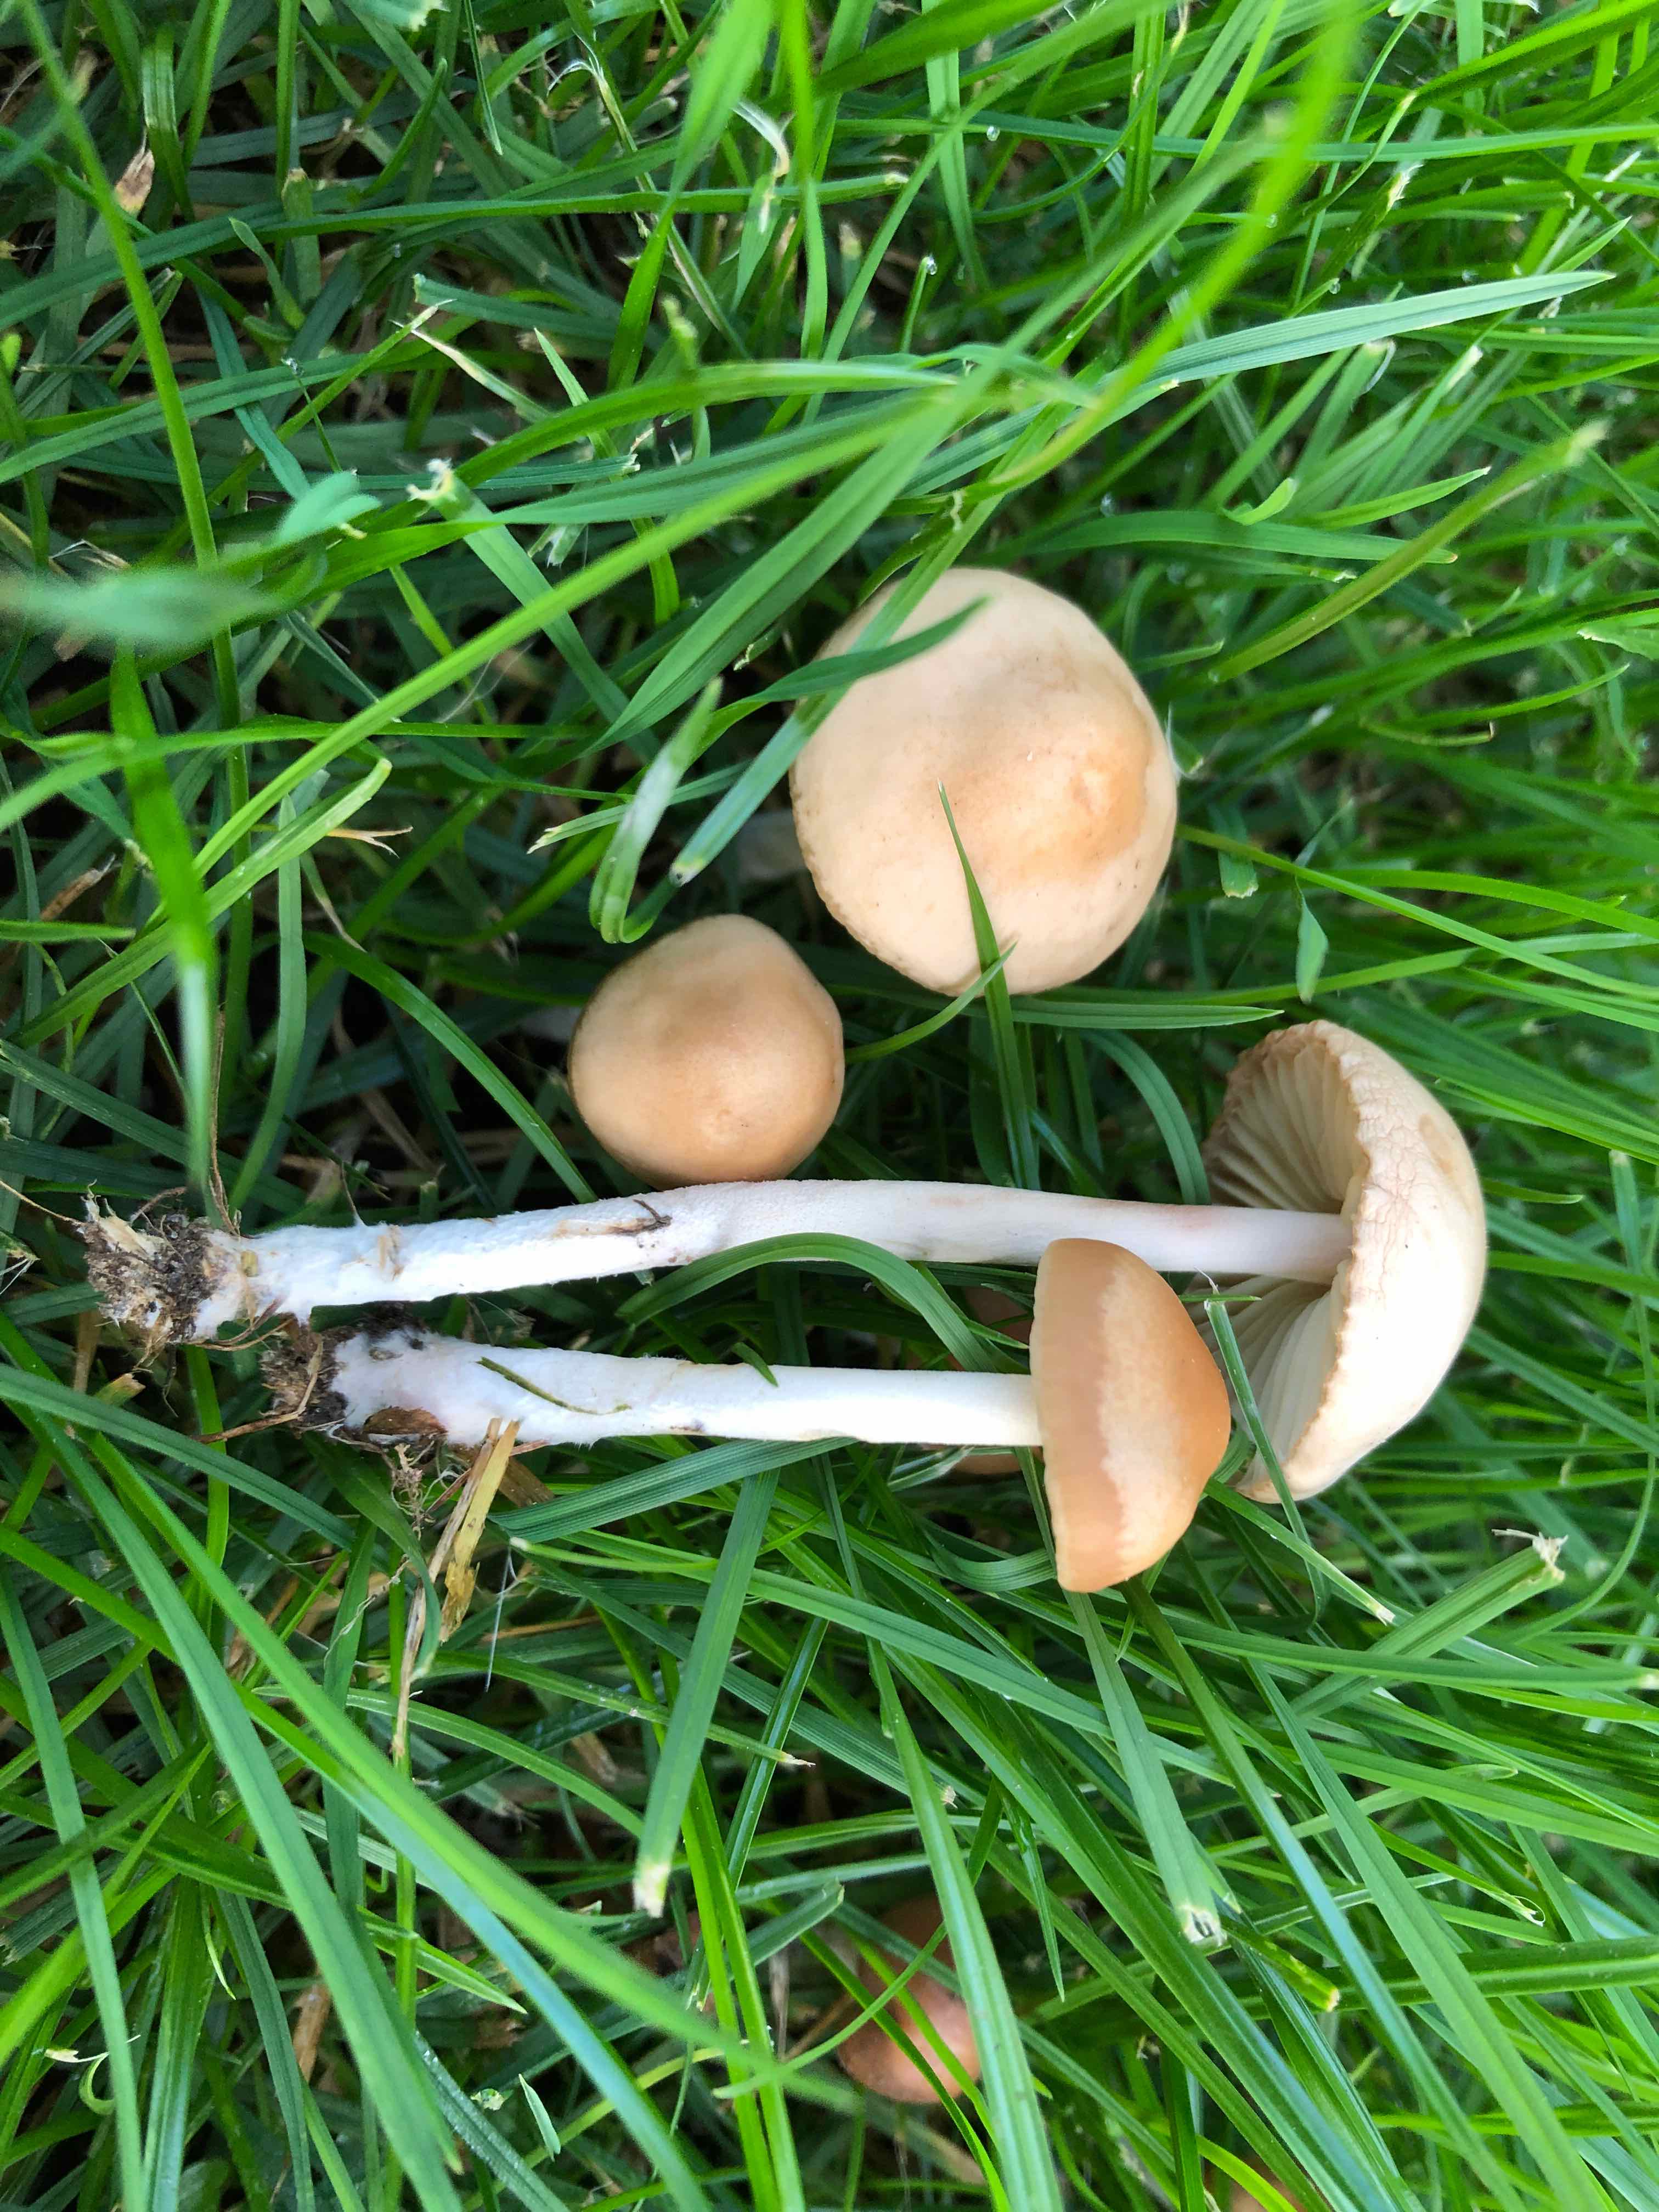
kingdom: Fungi
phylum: Basidiomycota
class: Agaricomycetes
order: Agaricales
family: Marasmiaceae
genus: Marasmius
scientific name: Marasmius oreades
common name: elledans-bruskhat
